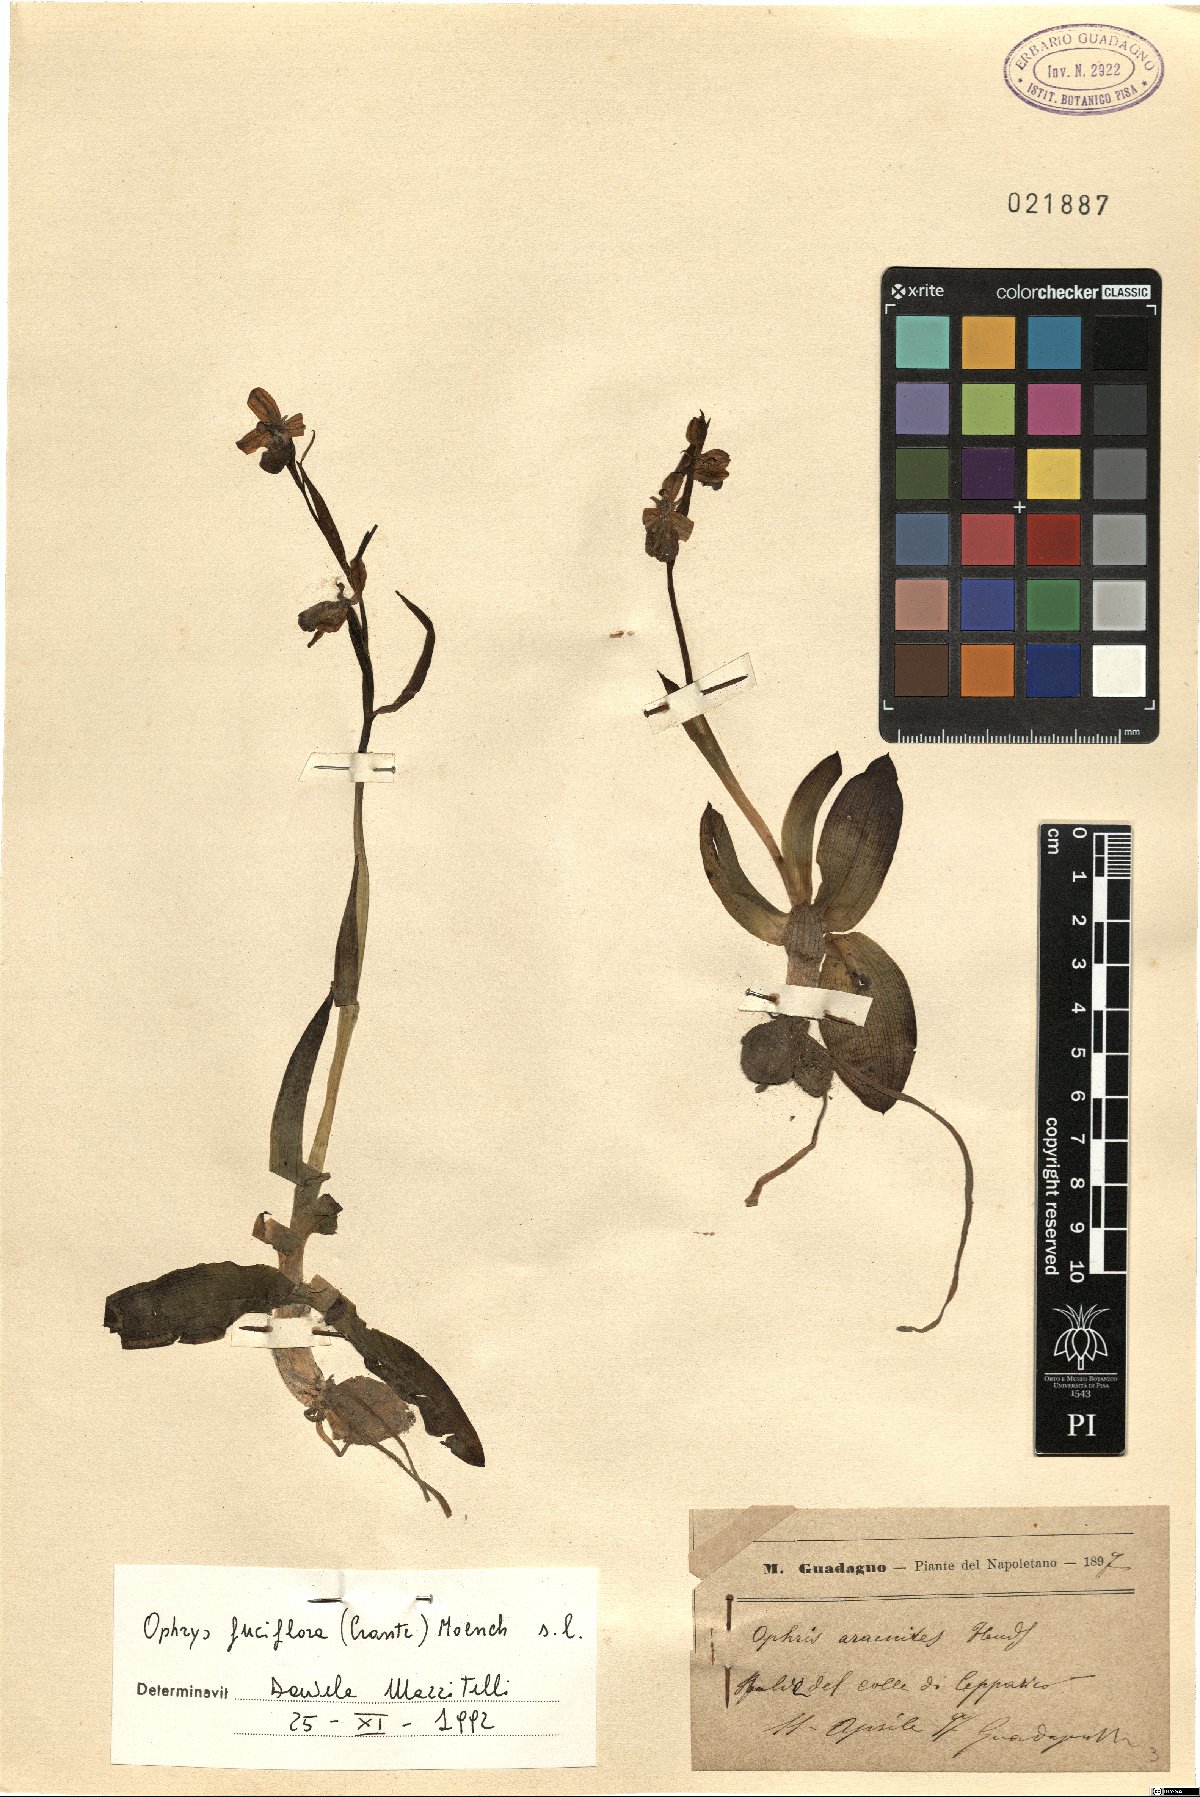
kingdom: Plantae
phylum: Tracheophyta
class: Liliopsida
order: Asparagales
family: Orchidaceae
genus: Ophrys
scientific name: Ophrys holosericea
